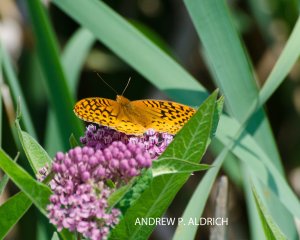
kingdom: Animalia
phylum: Arthropoda
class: Insecta
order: Lepidoptera
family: Nymphalidae
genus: Speyeria
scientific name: Speyeria cybele
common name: Great Spangled Fritillary
